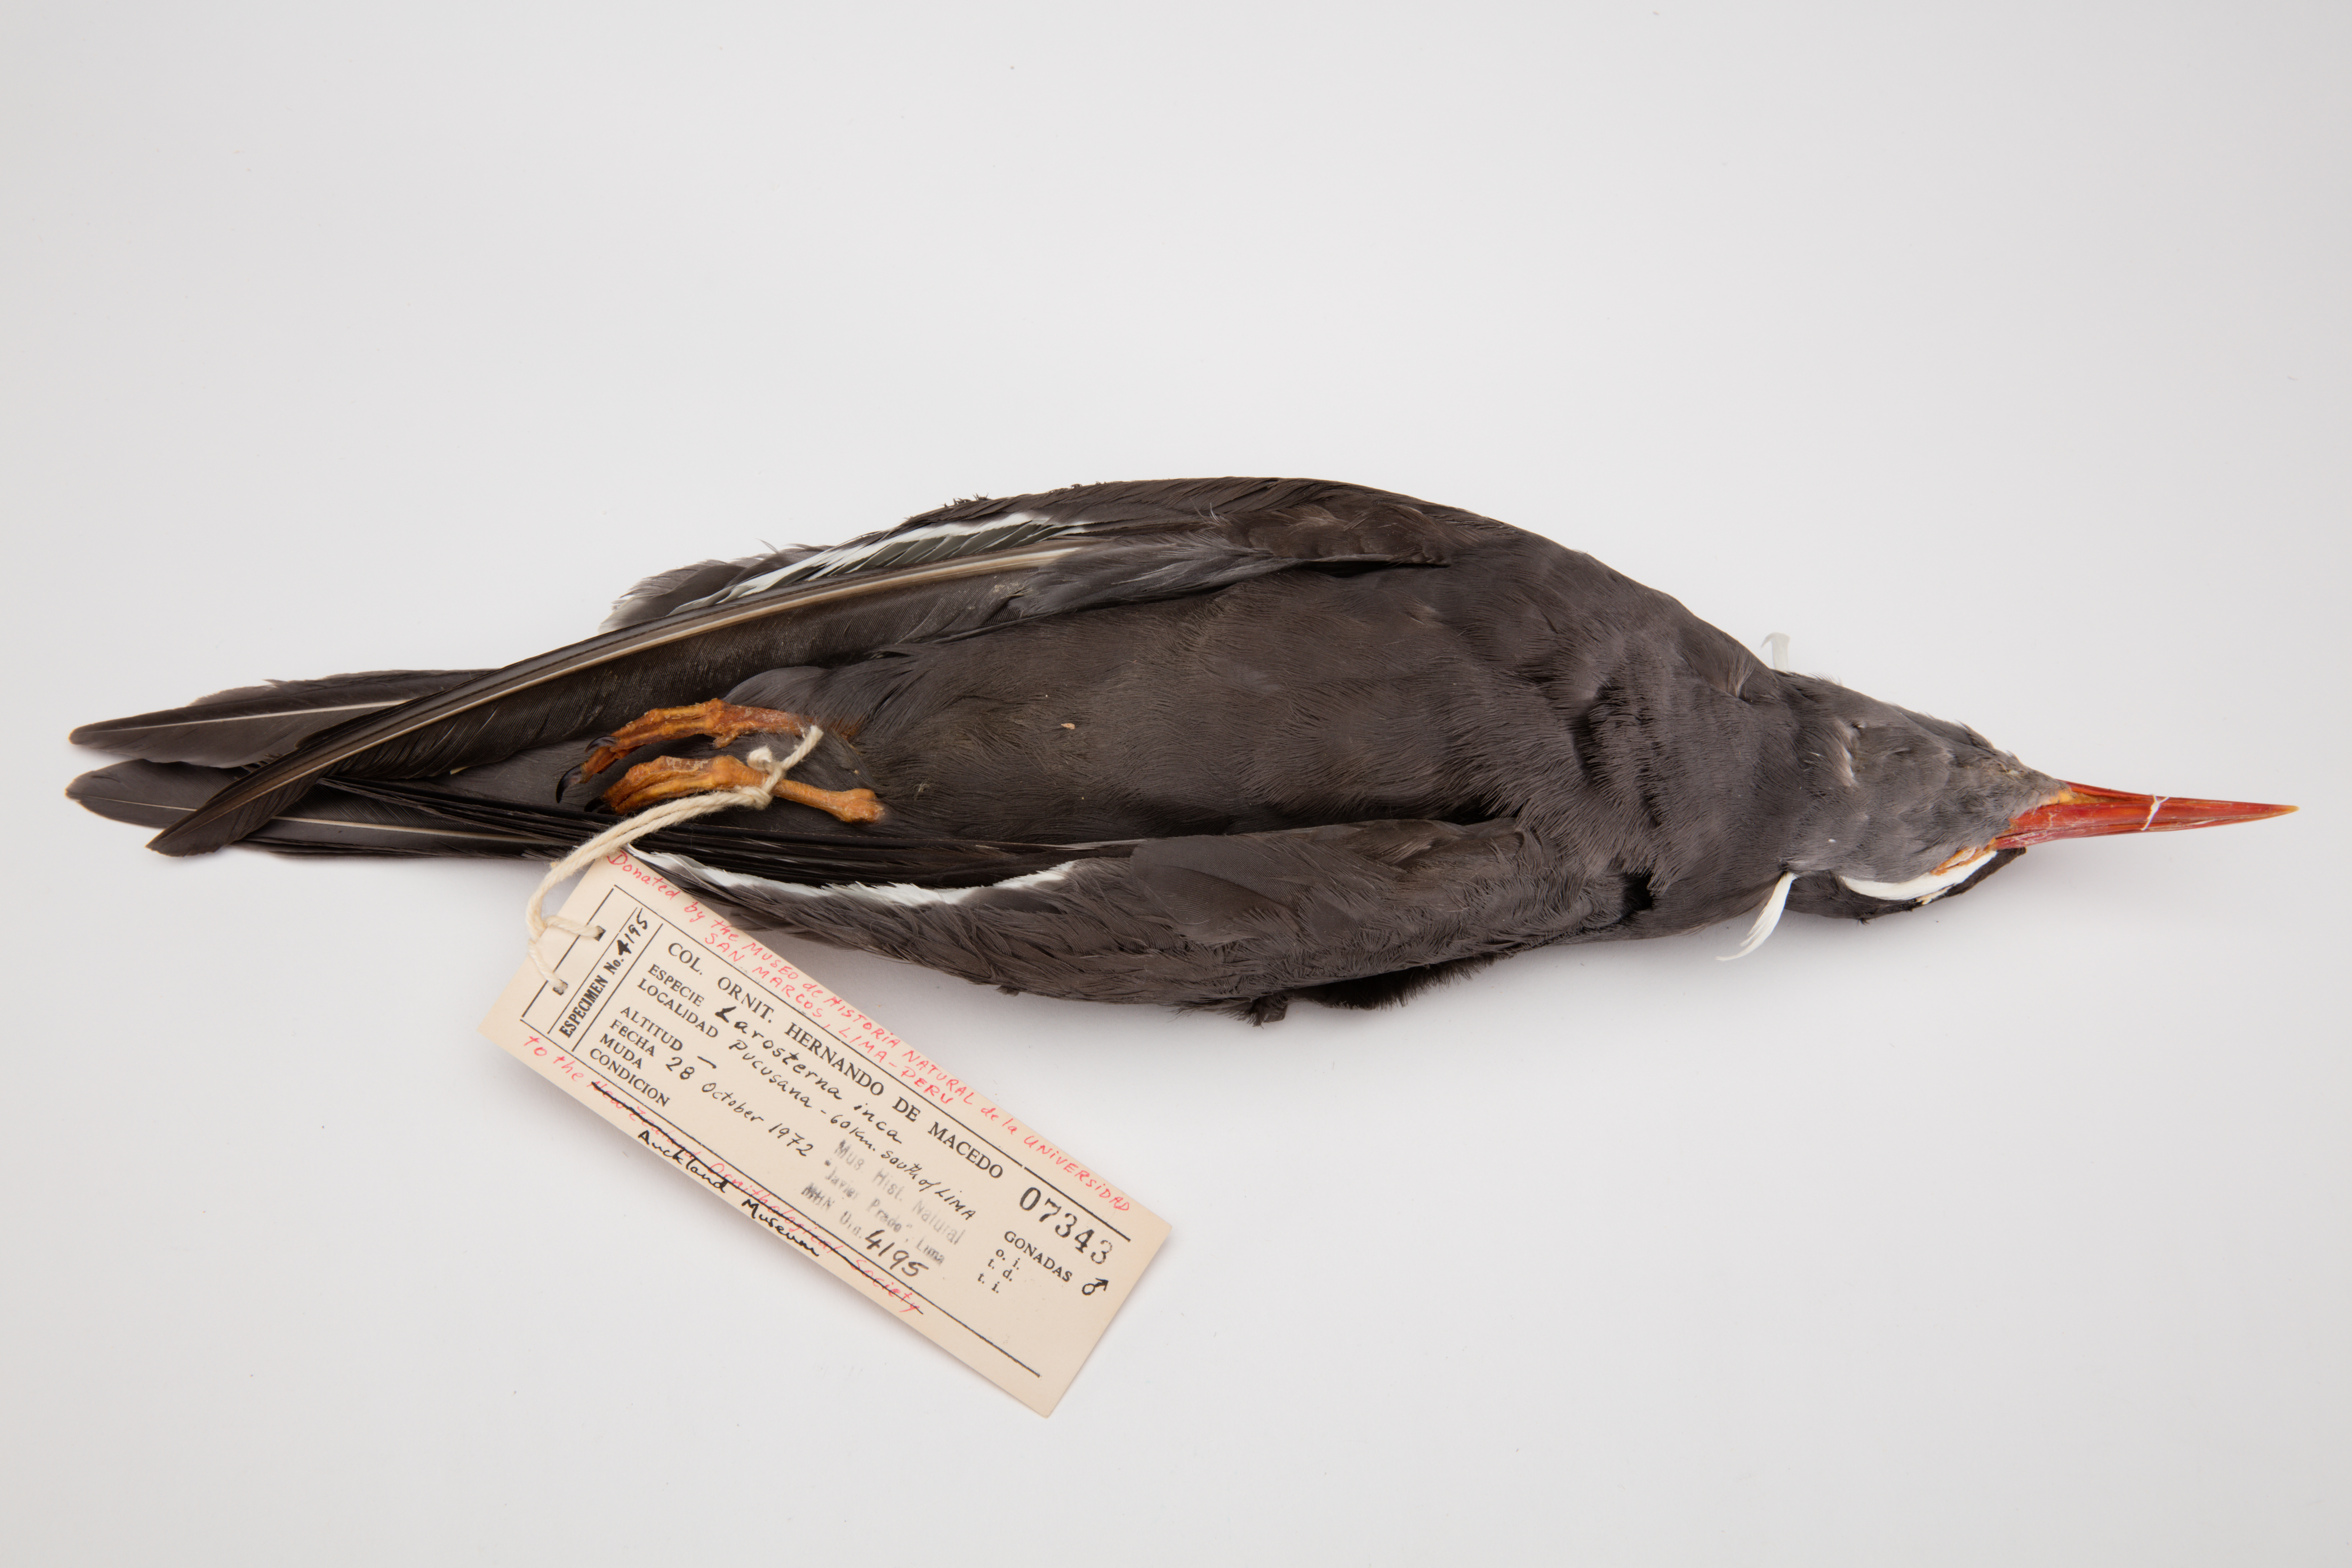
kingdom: Animalia
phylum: Chordata
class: Aves
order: Charadriiformes
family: Laridae
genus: Larosterna
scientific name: Larosterna inca
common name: Inca tern
